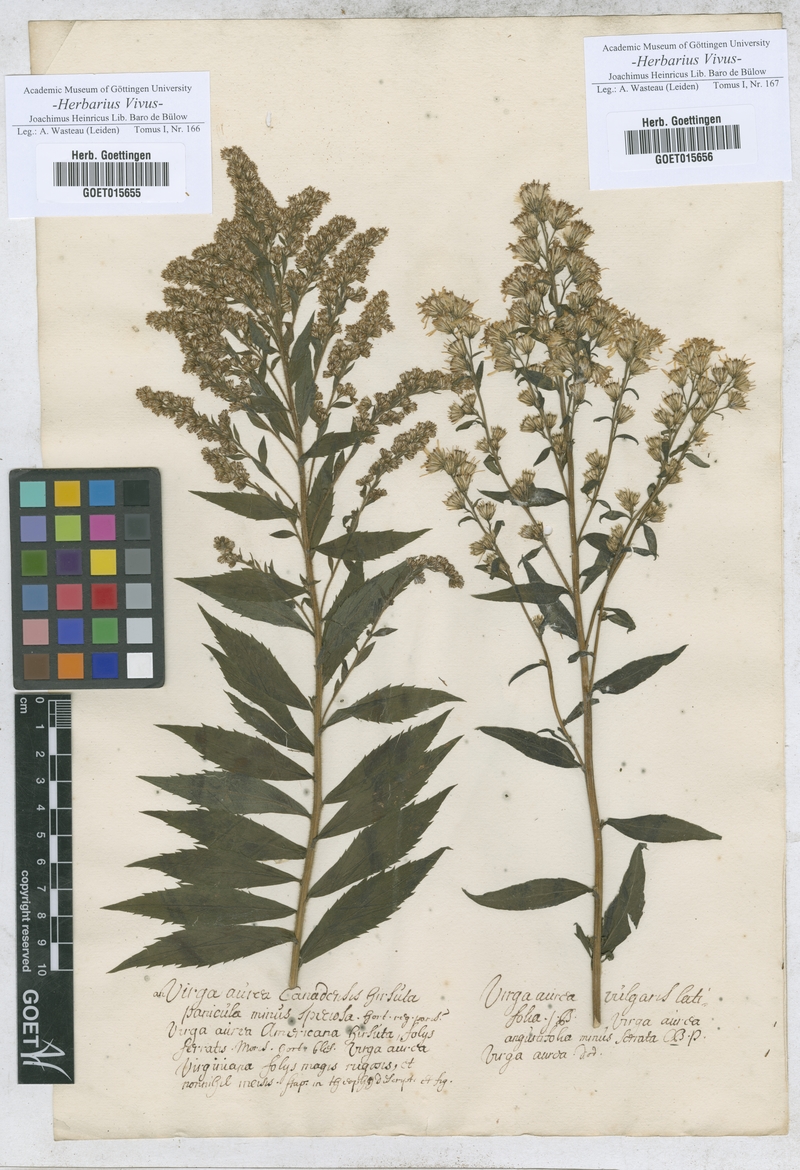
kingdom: Animalia
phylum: Arthropoda
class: Insecta
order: Lepidoptera
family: Hesperiidae
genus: Virga
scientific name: Virga
